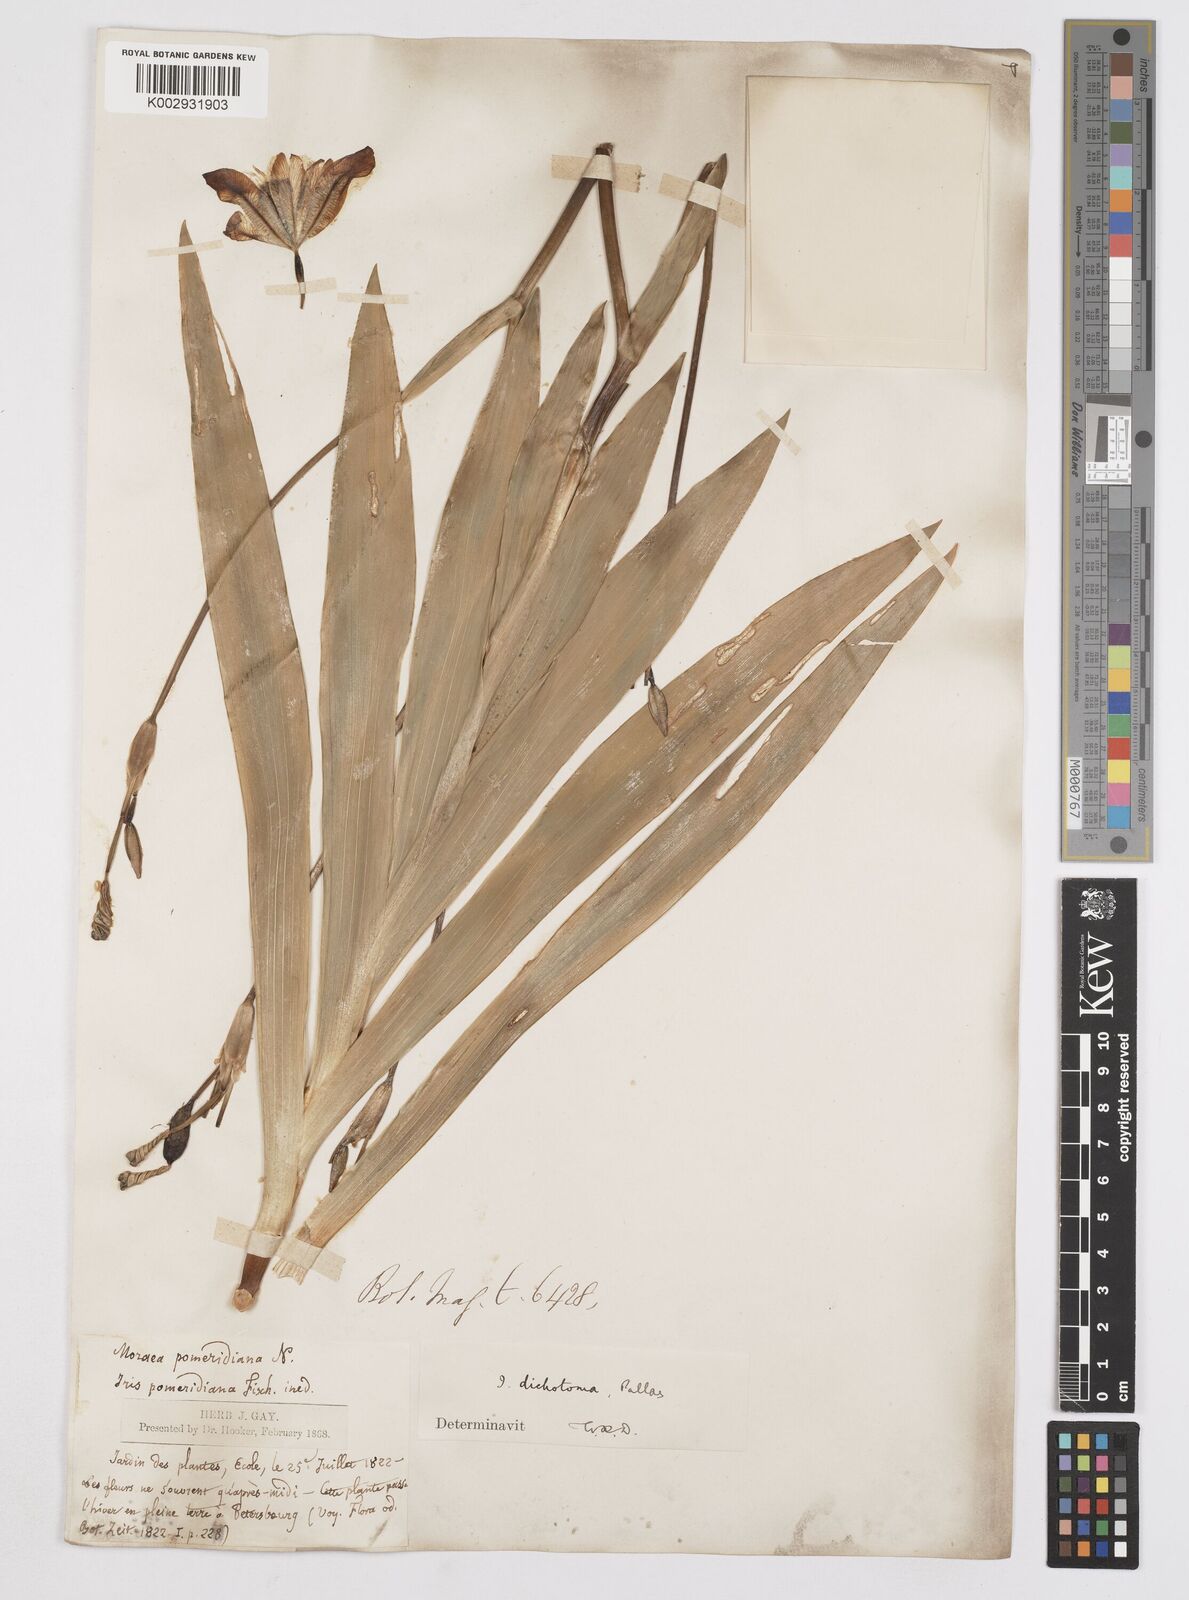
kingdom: Plantae
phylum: Tracheophyta
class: Liliopsida
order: Asparagales
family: Iridaceae
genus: Iris
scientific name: Iris dichotoma
